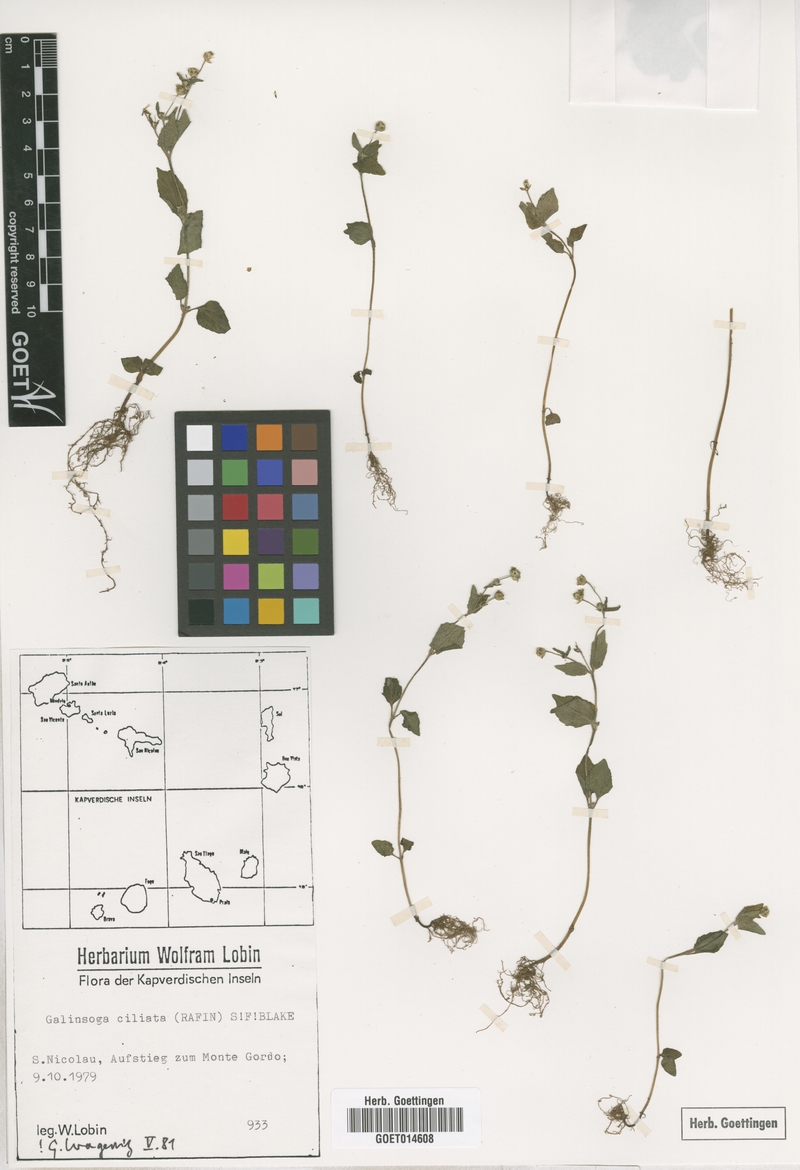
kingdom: Plantae
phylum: Tracheophyta
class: Magnoliopsida
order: Asterales
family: Asteraceae
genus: Galinsoga
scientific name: Galinsoga quadriradiata
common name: Shaggy soldier
